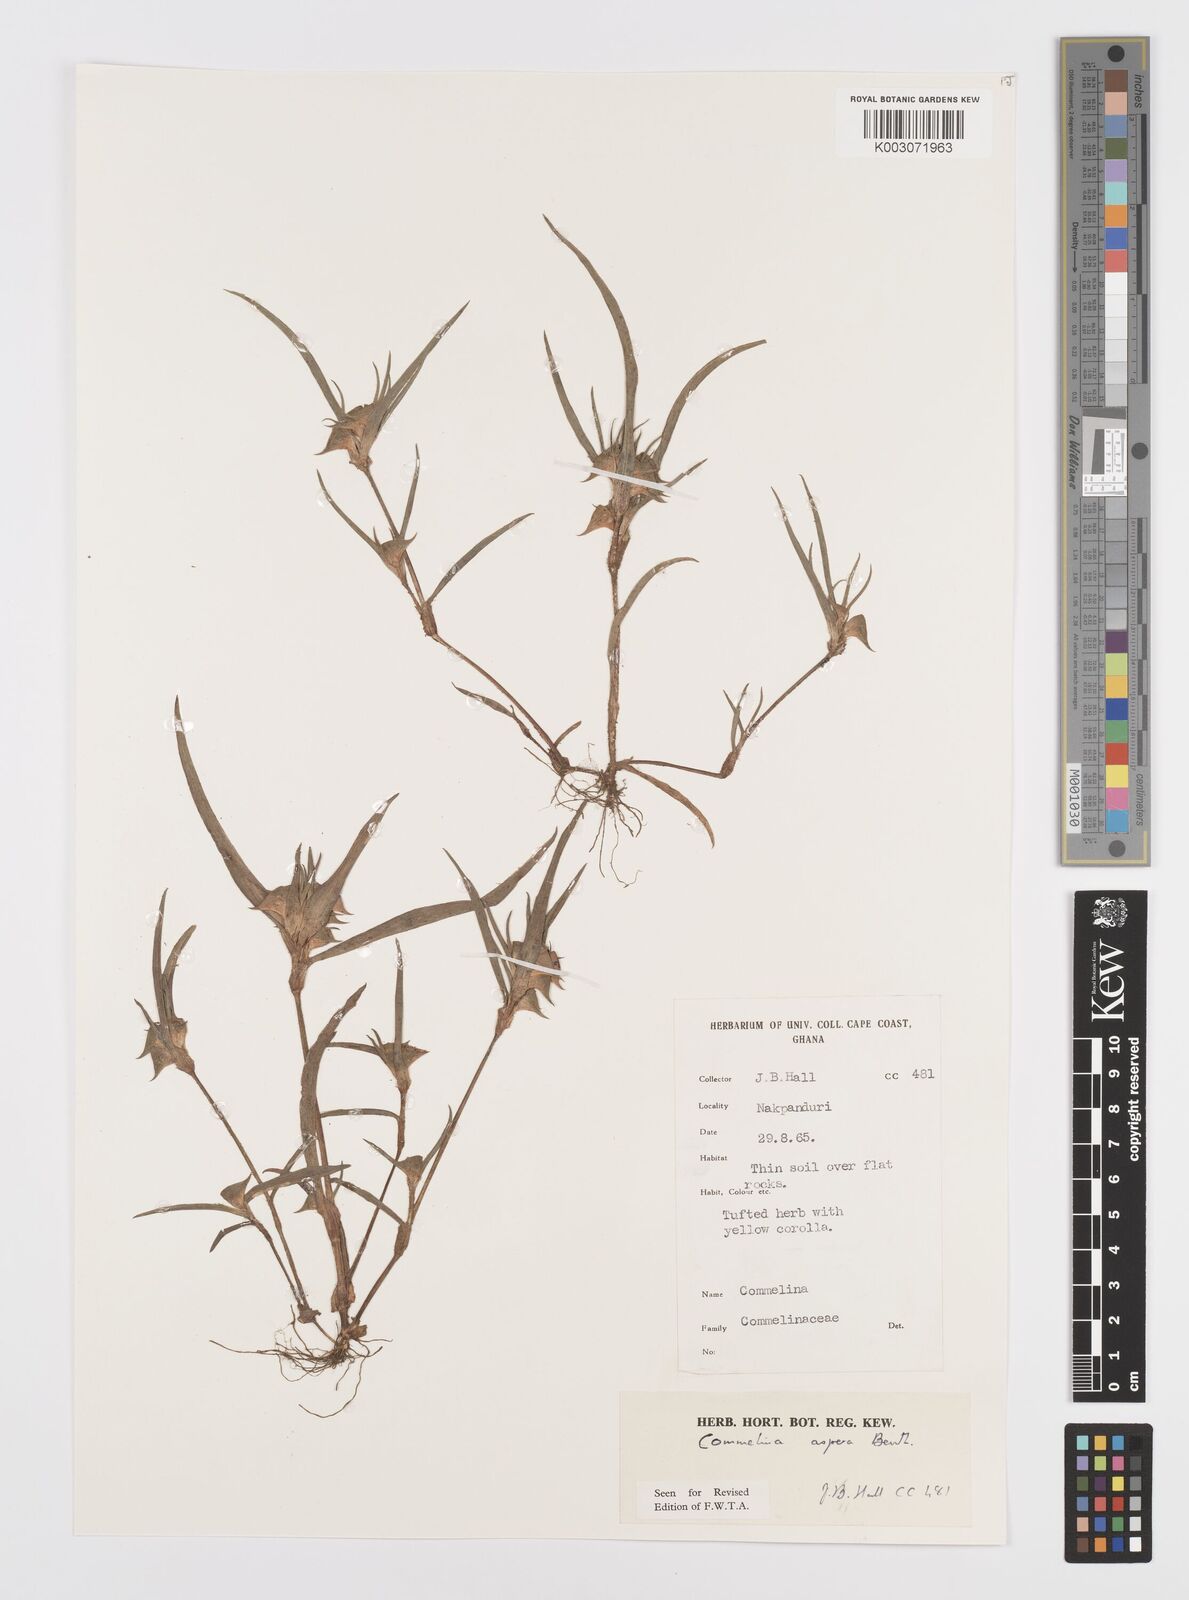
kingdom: Plantae
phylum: Tracheophyta
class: Liliopsida
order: Commelinales
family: Commelinaceae
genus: Commelina
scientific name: Commelina aspera
